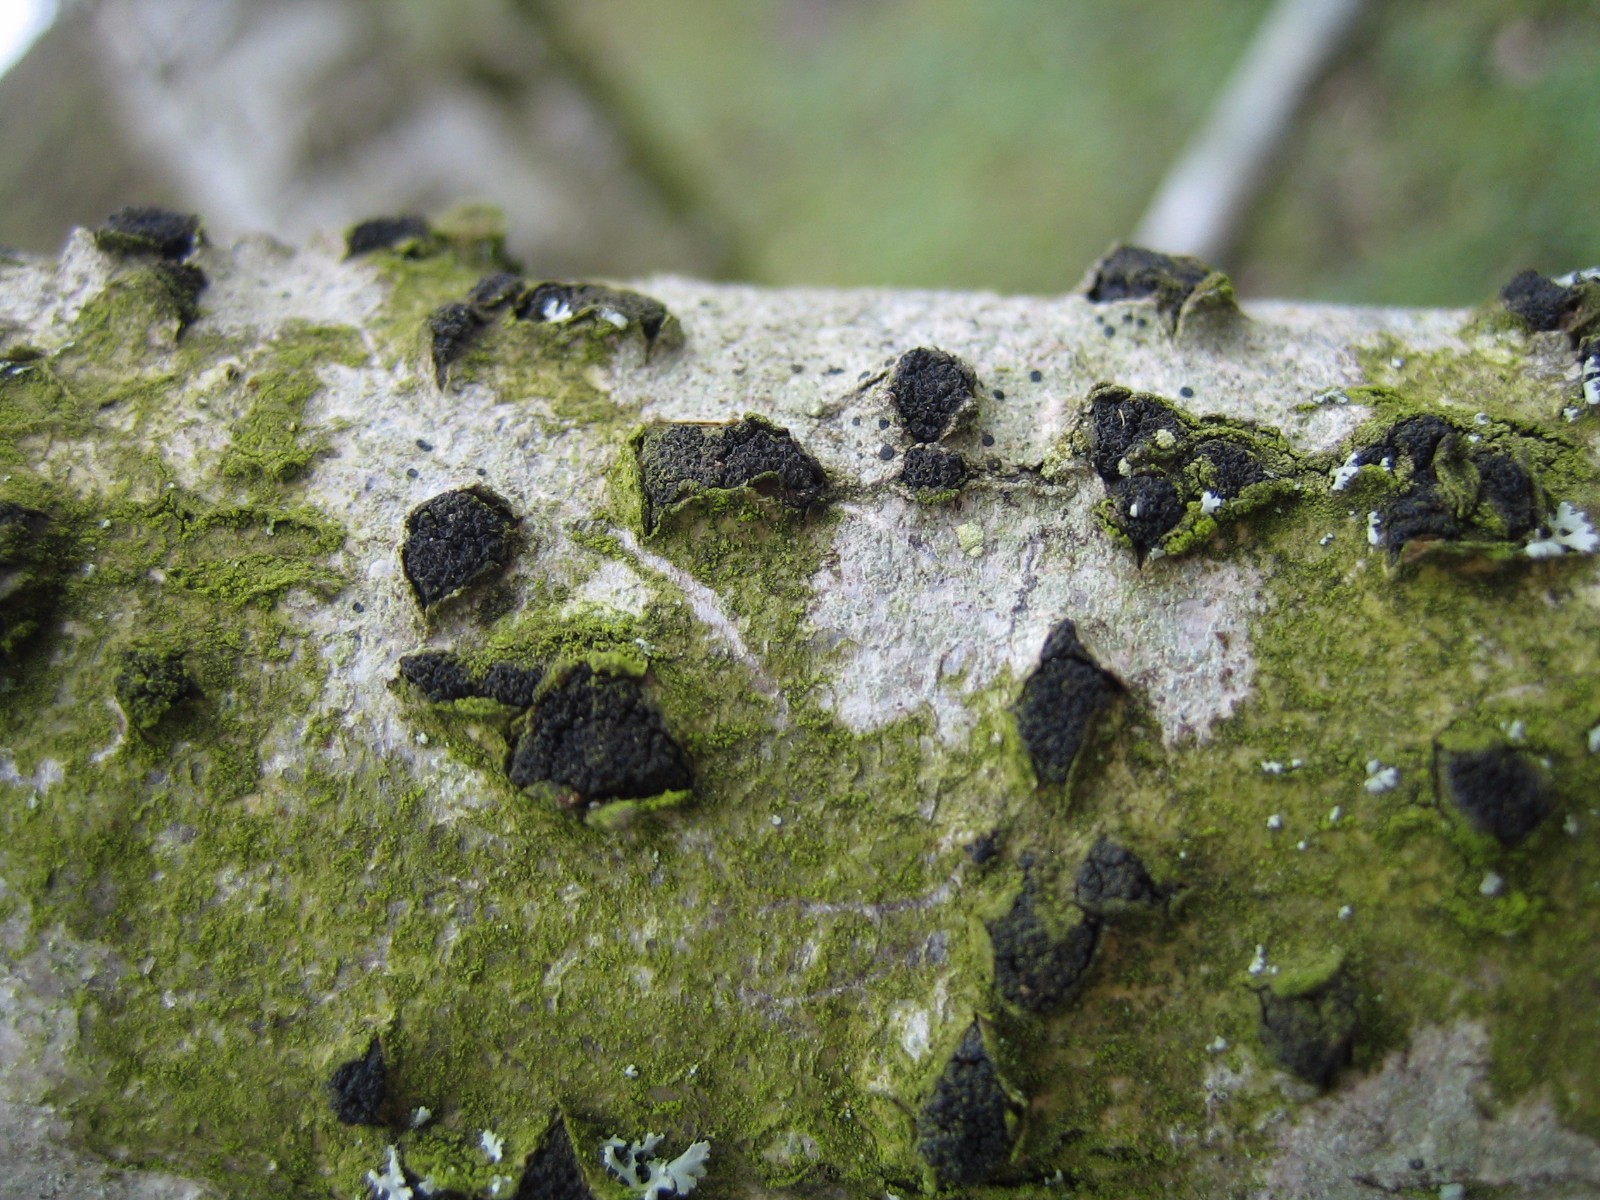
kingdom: Fungi
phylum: Ascomycota
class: Sordariomycetes
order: Xylariales
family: Diatrypaceae
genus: Eutypella
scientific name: Eutypella sorbi
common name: rønne-kulskorpe
